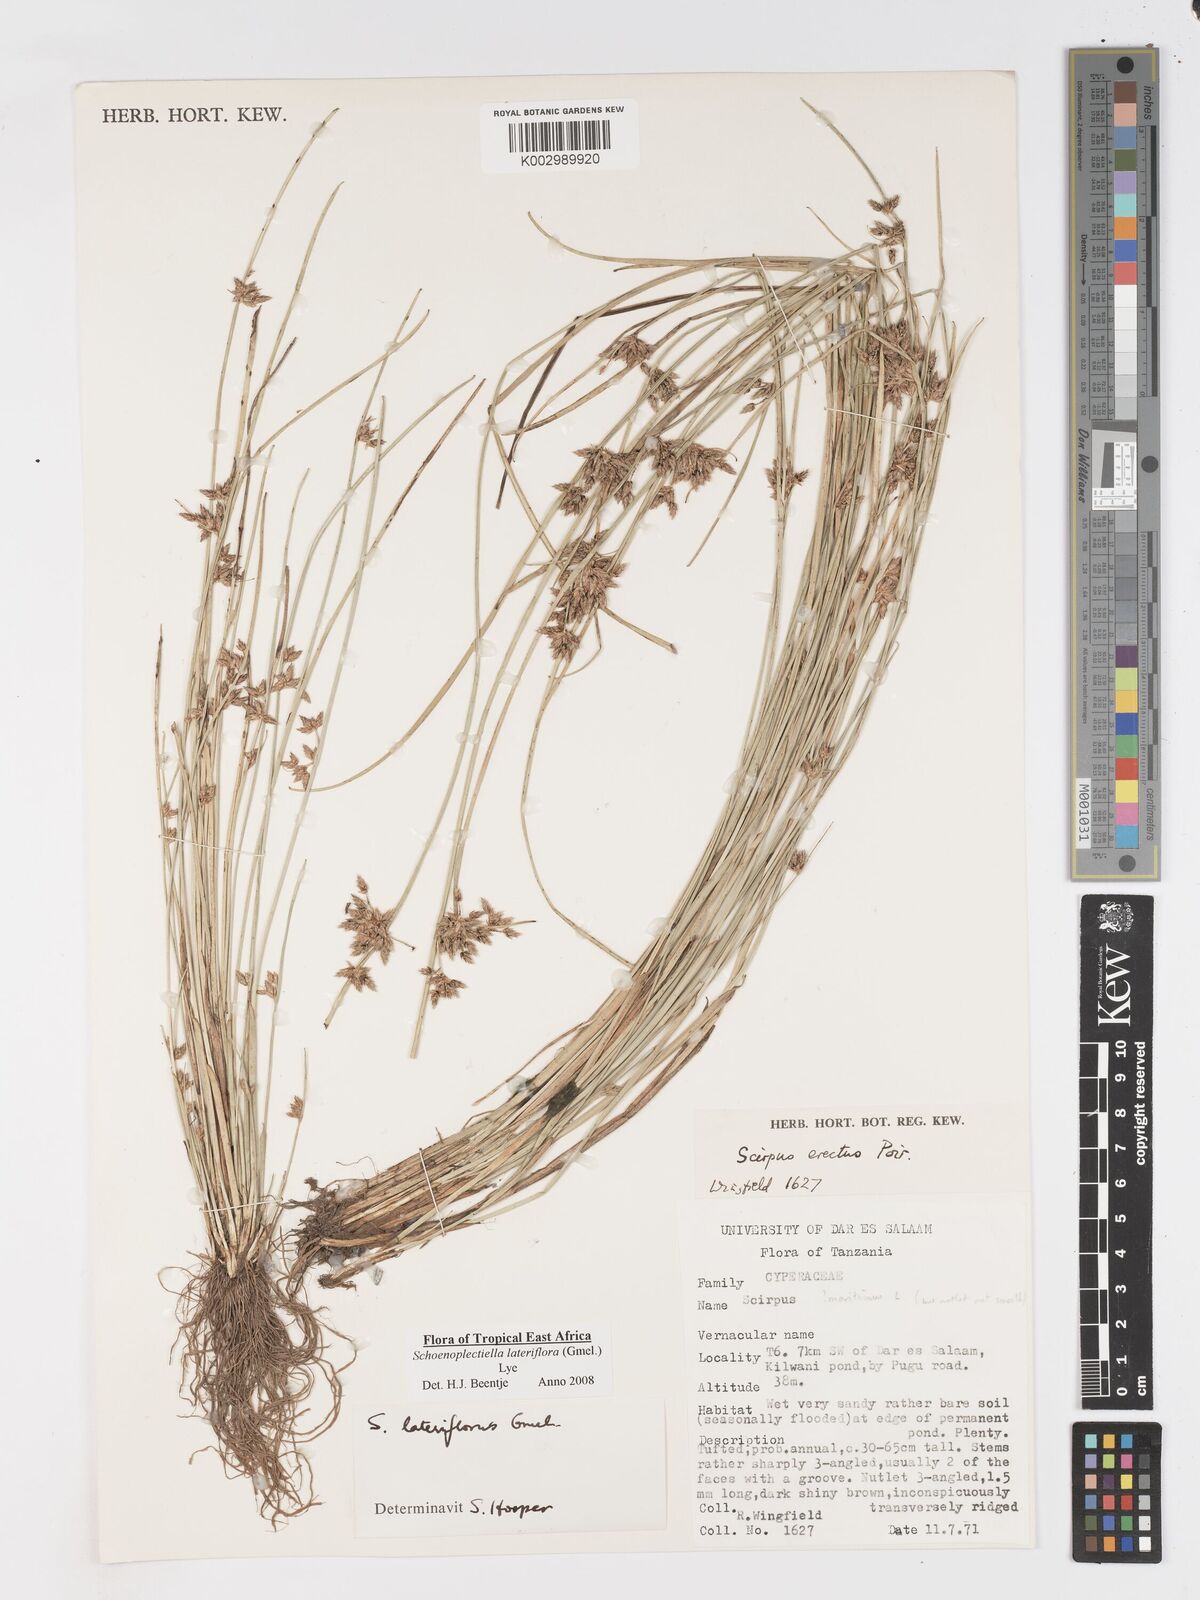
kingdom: Plantae
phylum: Tracheophyta
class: Liliopsida
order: Poales
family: Cyperaceae
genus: Schoenoplectiella
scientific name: Schoenoplectiella lateriflora
